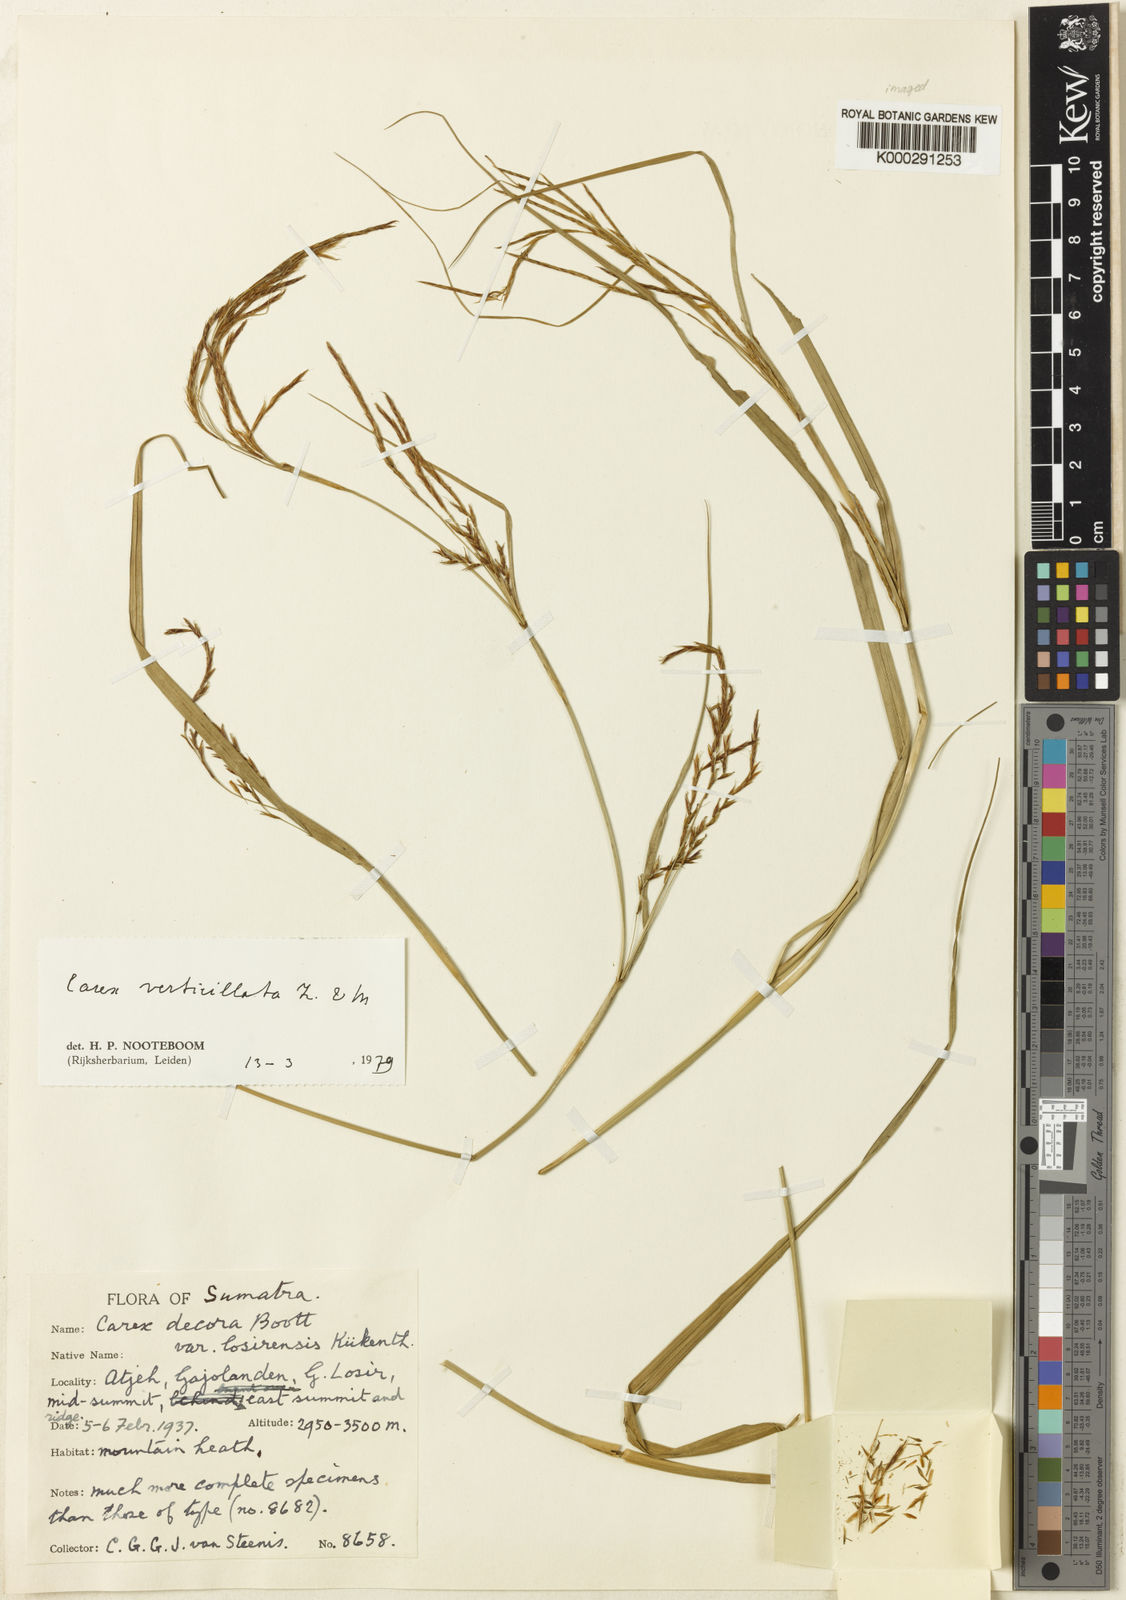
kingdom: Plantae
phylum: Tracheophyta
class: Liliopsida
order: Poales
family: Cyperaceae
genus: Carex
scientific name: Carex verticillata
